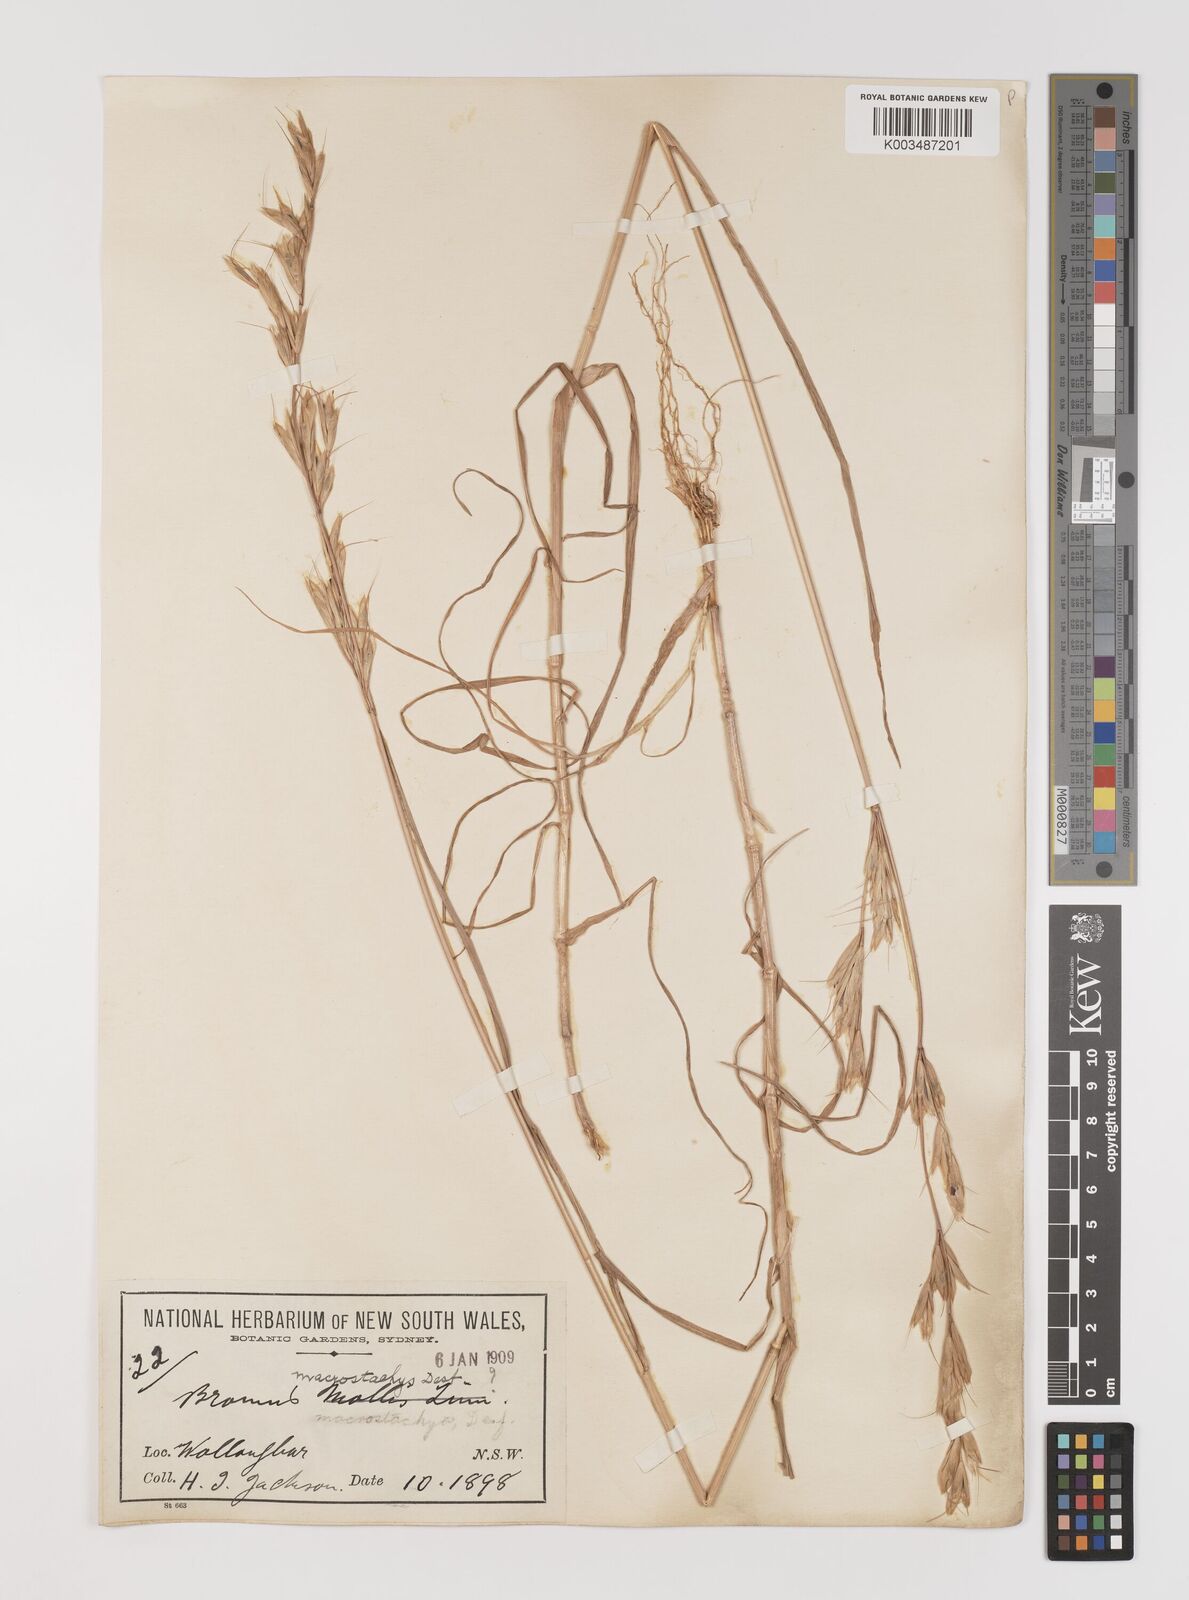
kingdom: Plantae
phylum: Tracheophyta
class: Liliopsida
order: Poales
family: Poaceae
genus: Bromus
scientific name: Bromus lanceolatus
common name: Mediterranean brome
